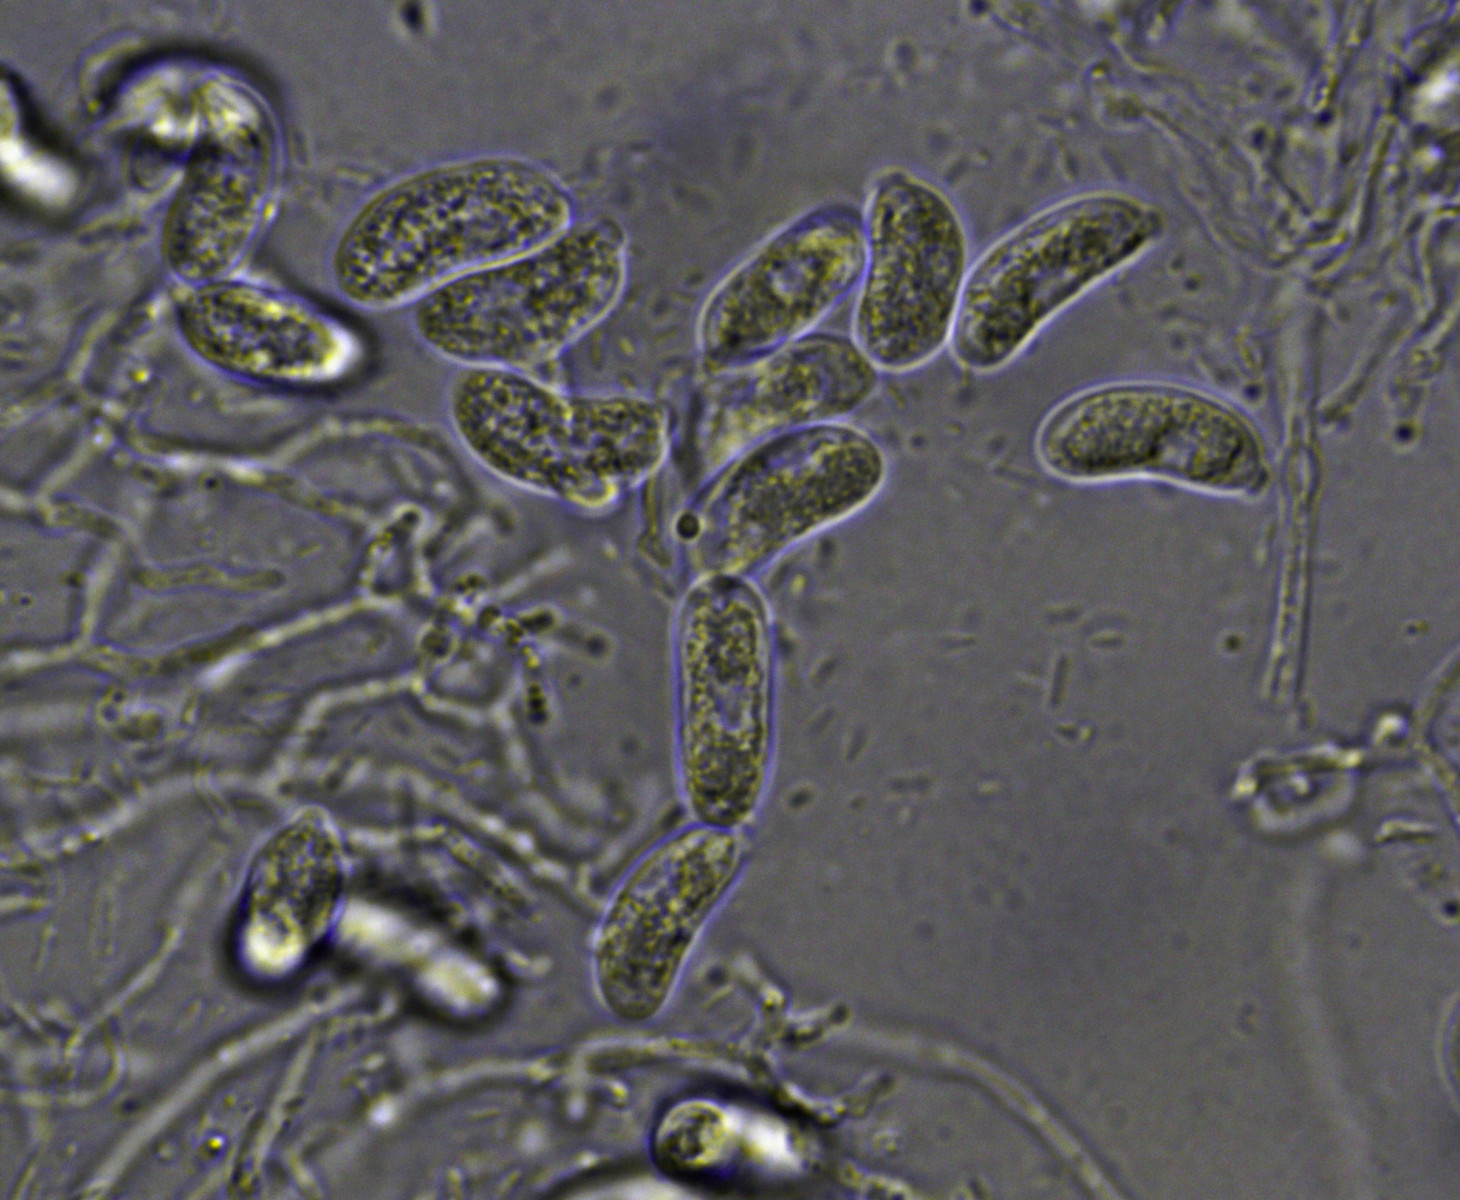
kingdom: Fungi
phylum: Basidiomycota
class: Agaricomycetes
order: Auriculariales
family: Hyaloriaceae
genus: Myxarium
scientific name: Myxarium hyalinum
